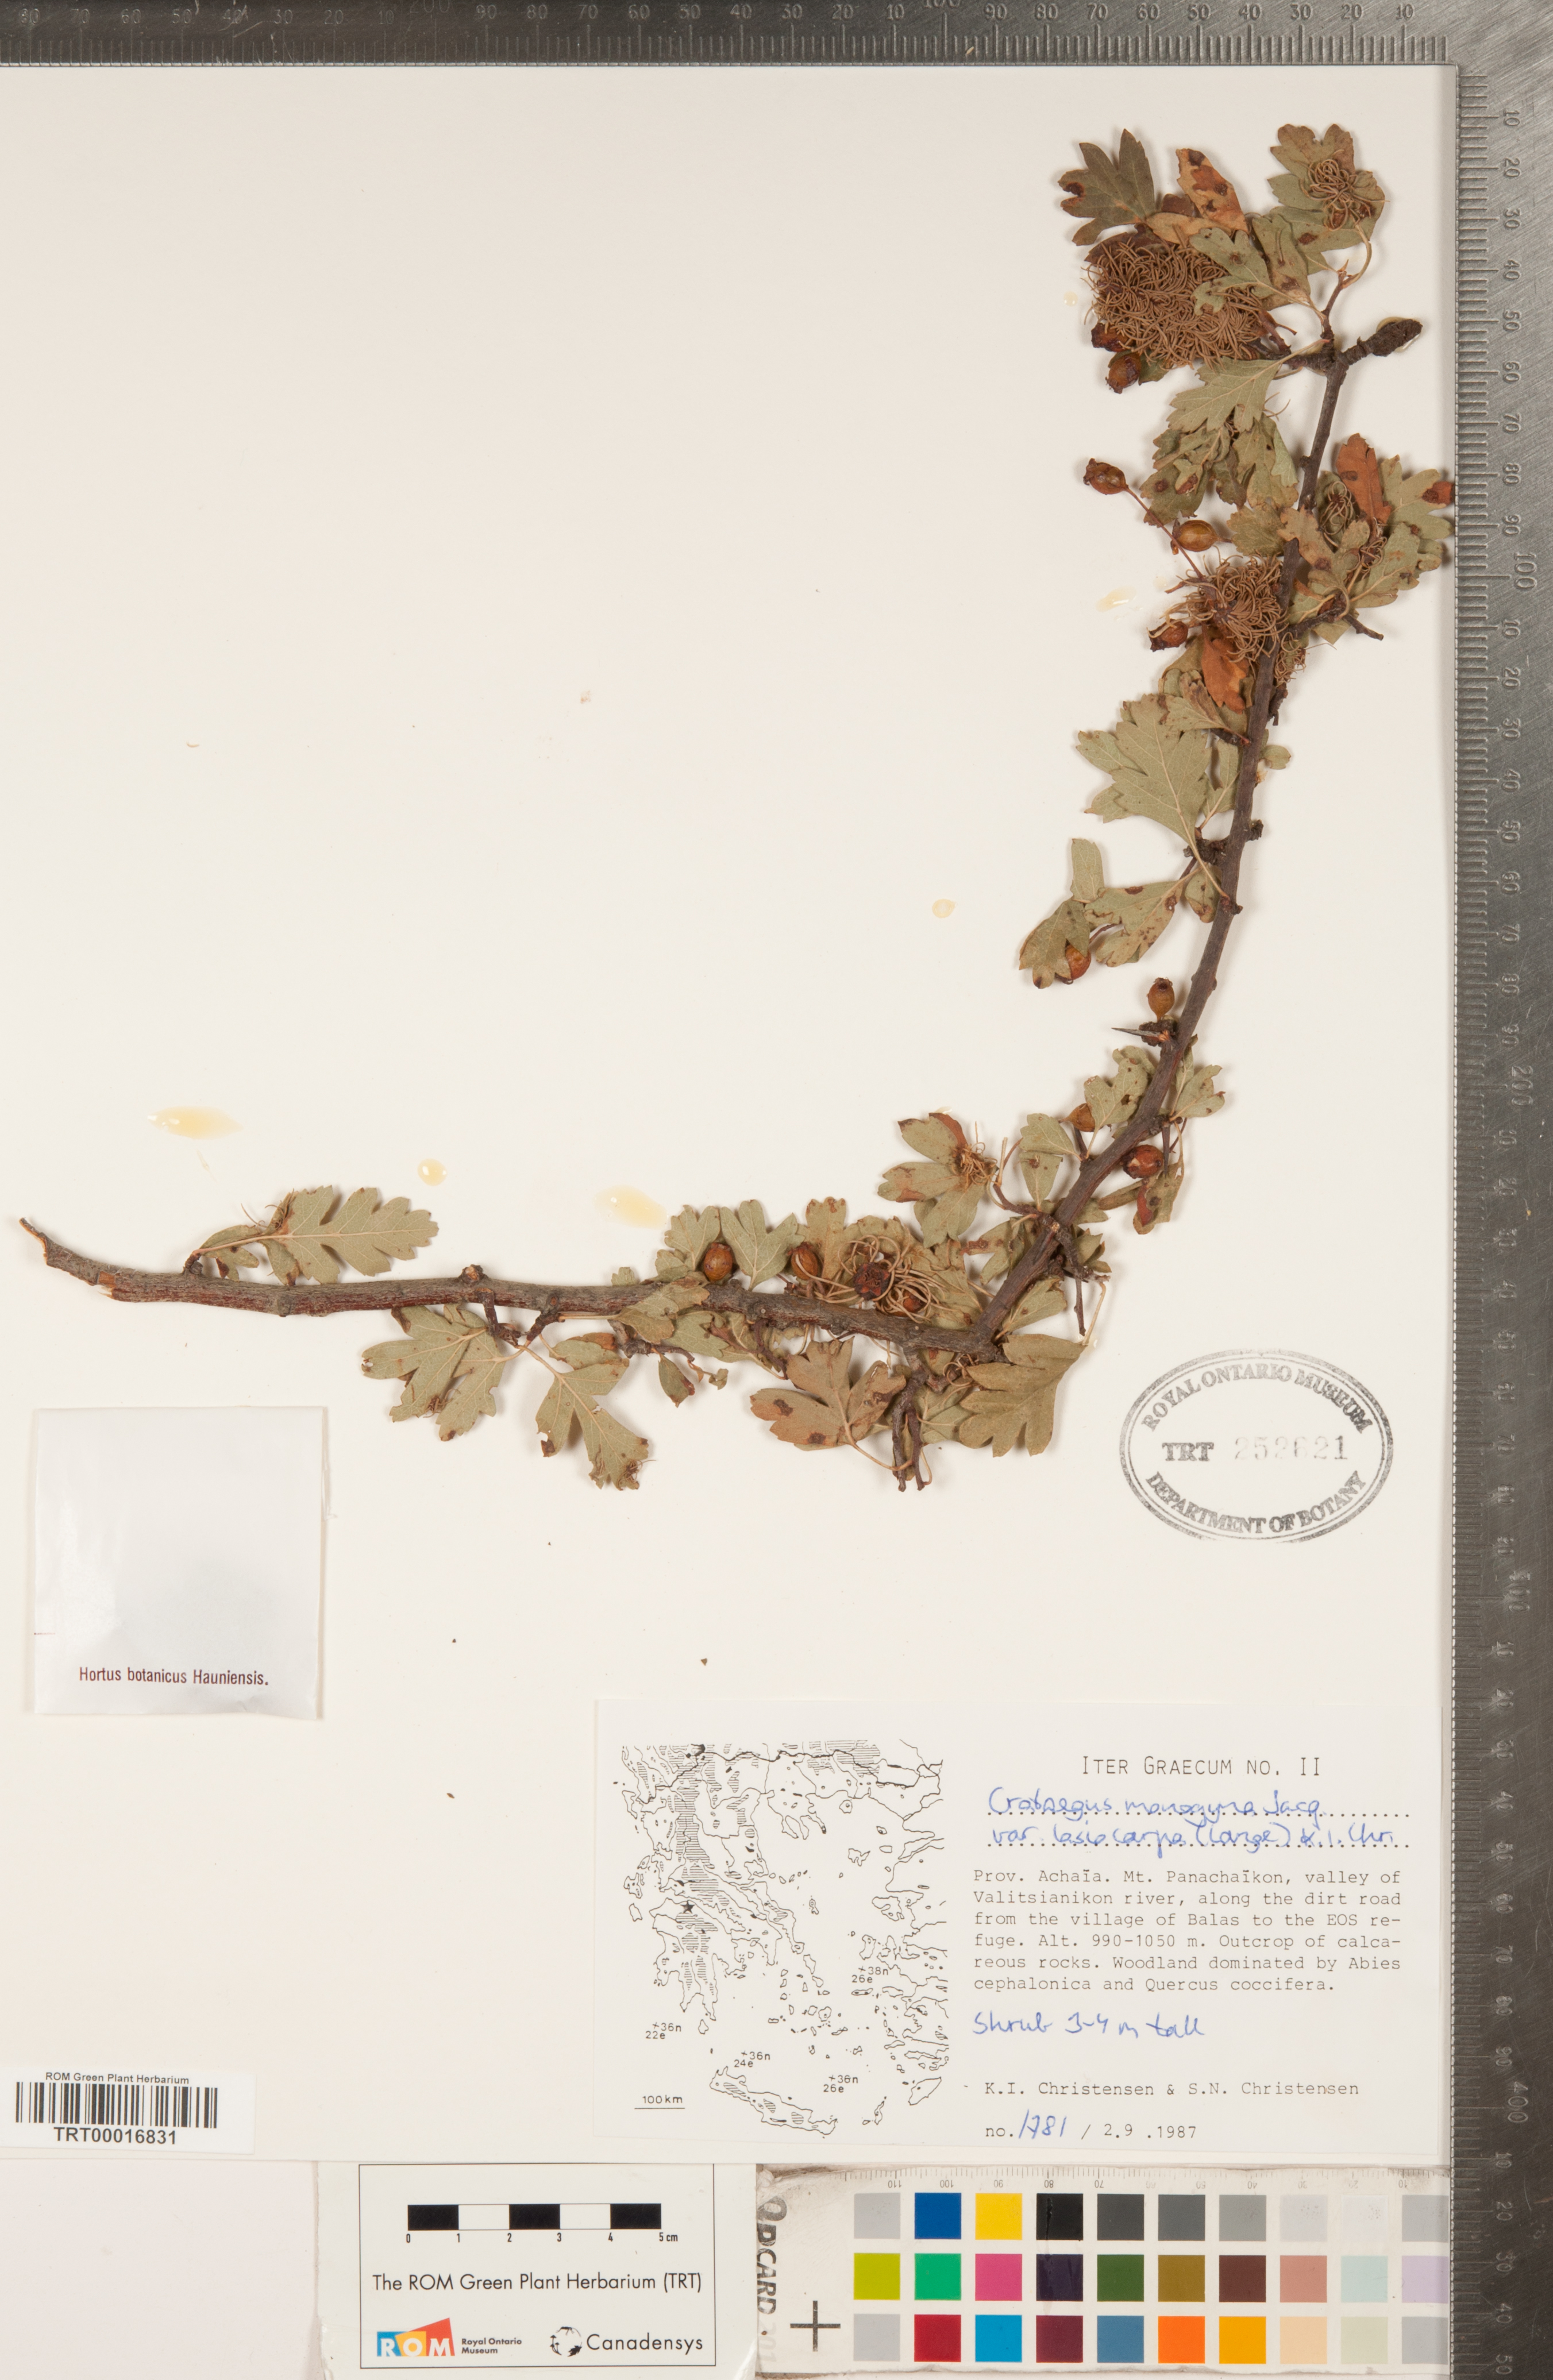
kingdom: Plantae
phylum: Tracheophyta
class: Magnoliopsida
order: Rosales
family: Rosaceae
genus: Crataegus
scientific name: Crataegus laciniata
